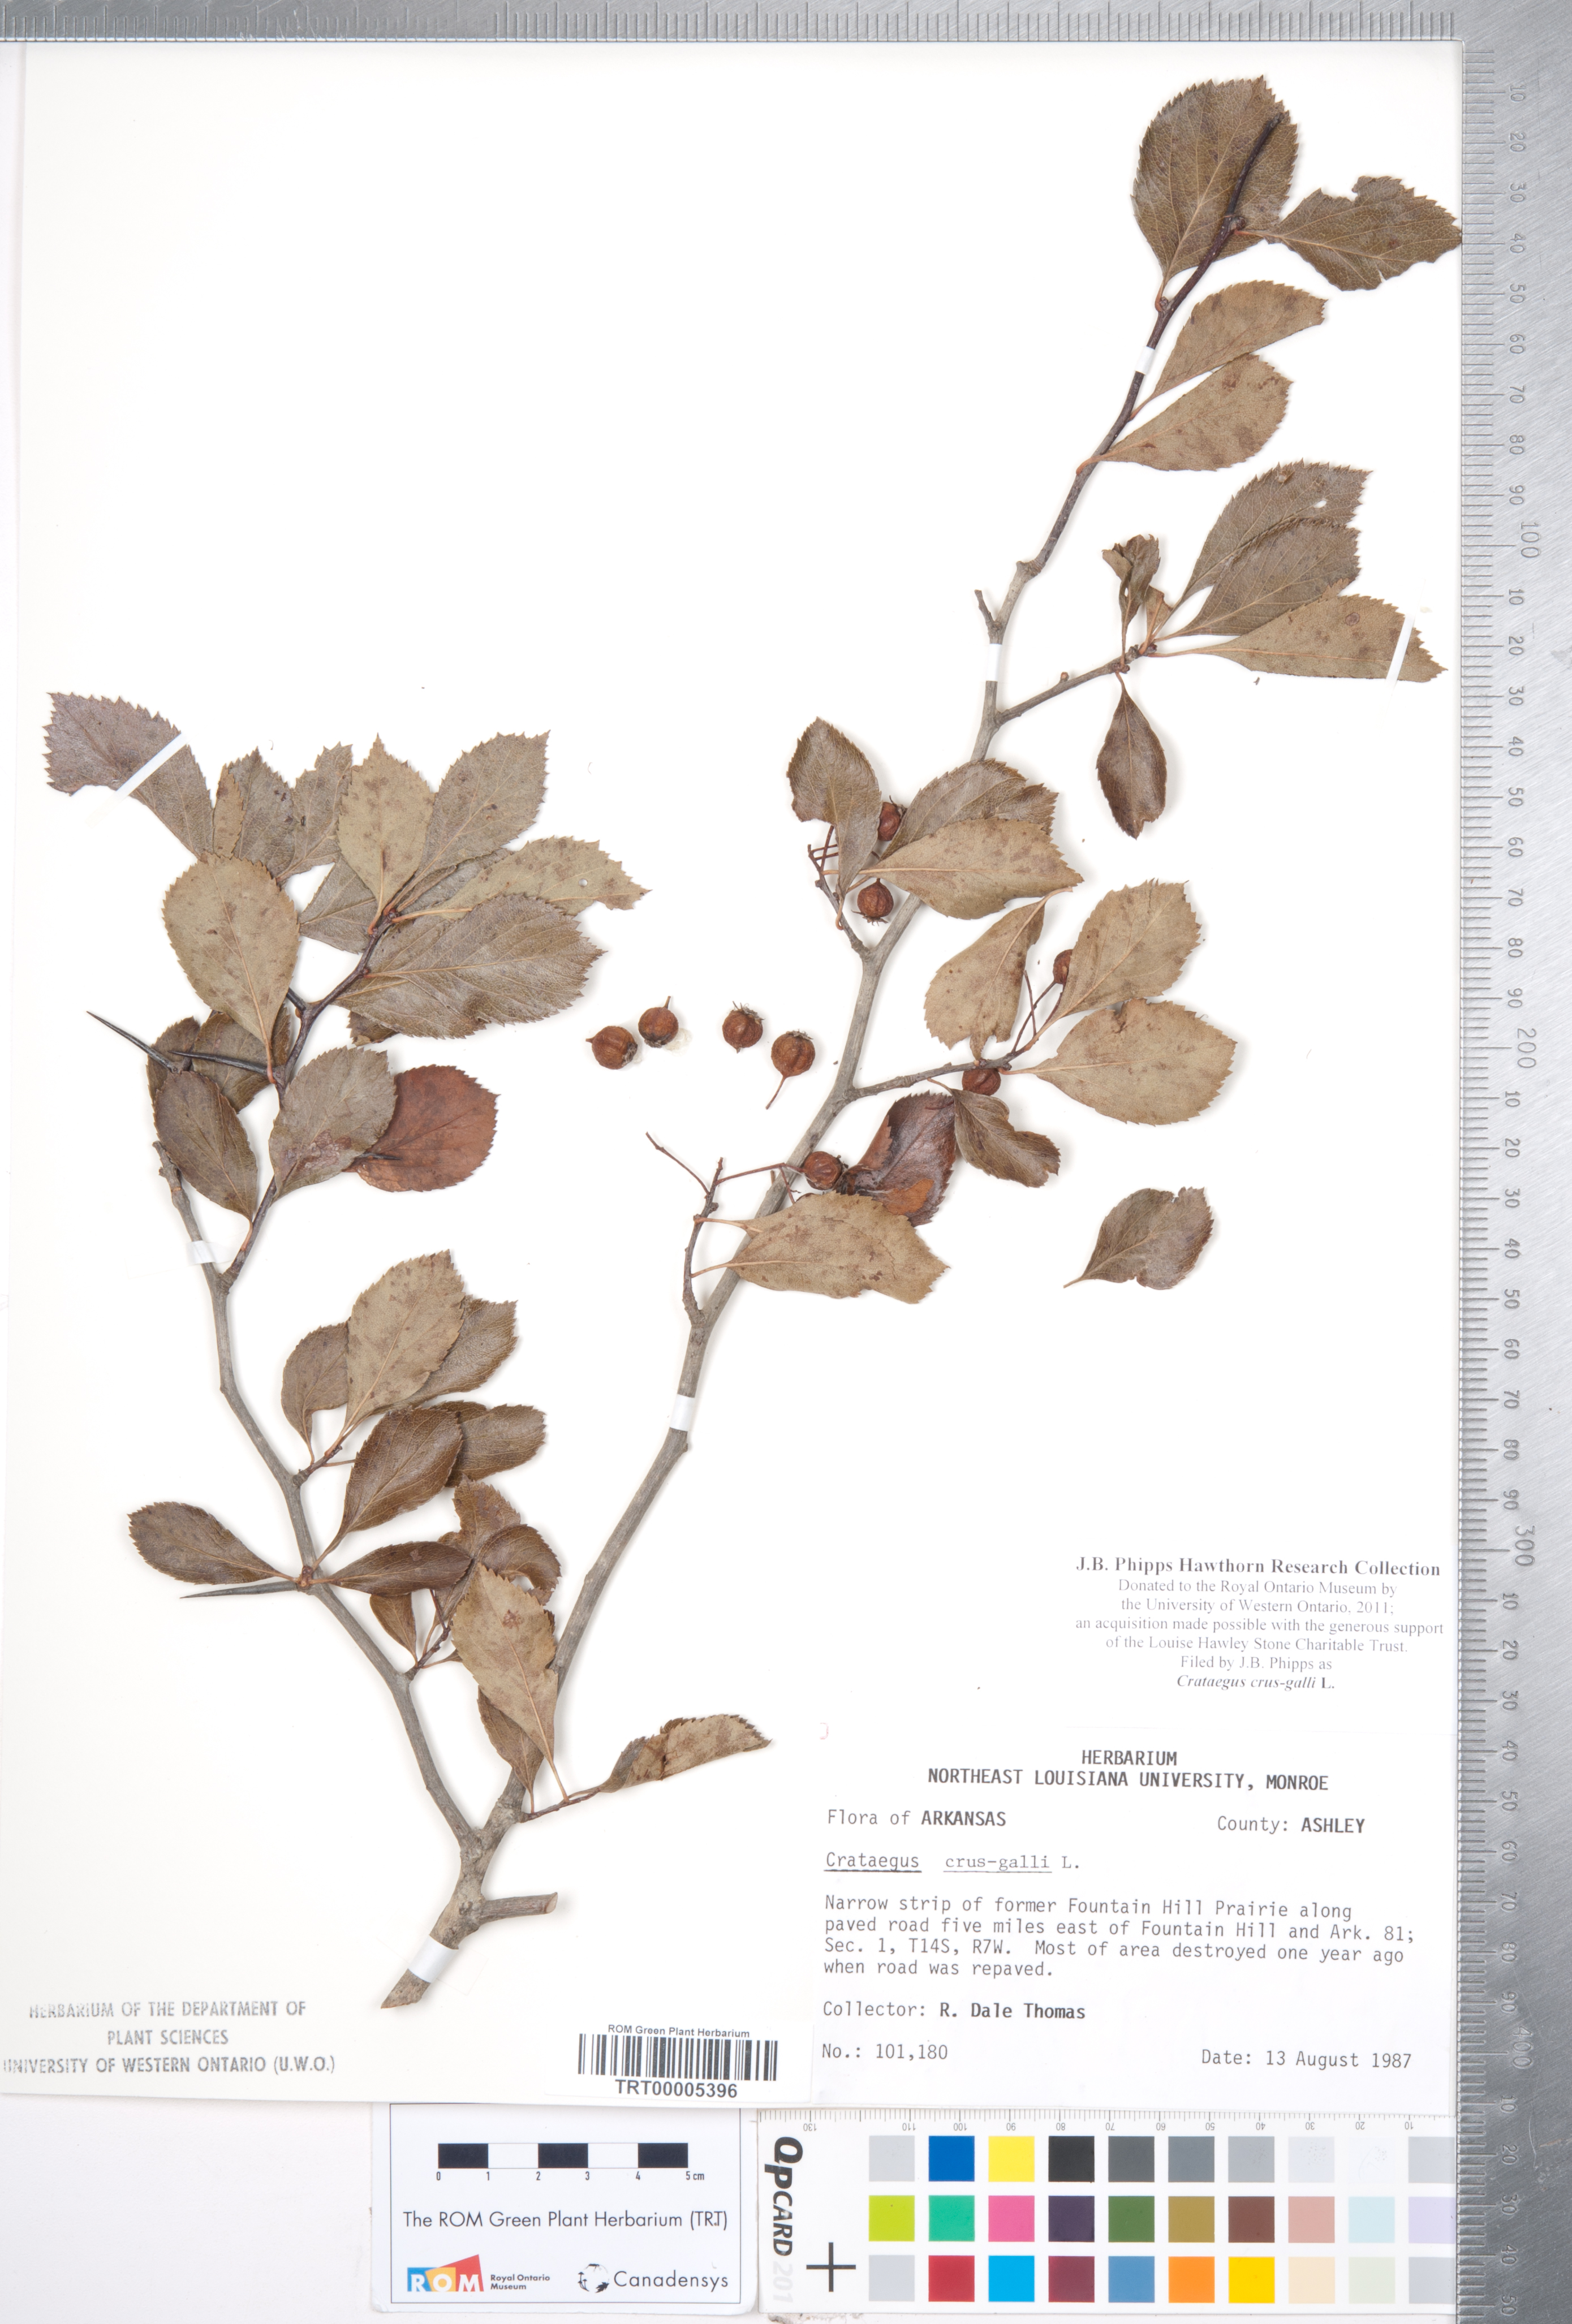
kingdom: Plantae
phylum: Tracheophyta
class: Magnoliopsida
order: Rosales
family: Rosaceae
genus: Crataegus
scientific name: Crataegus crus-galli
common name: Cockspurthorn
